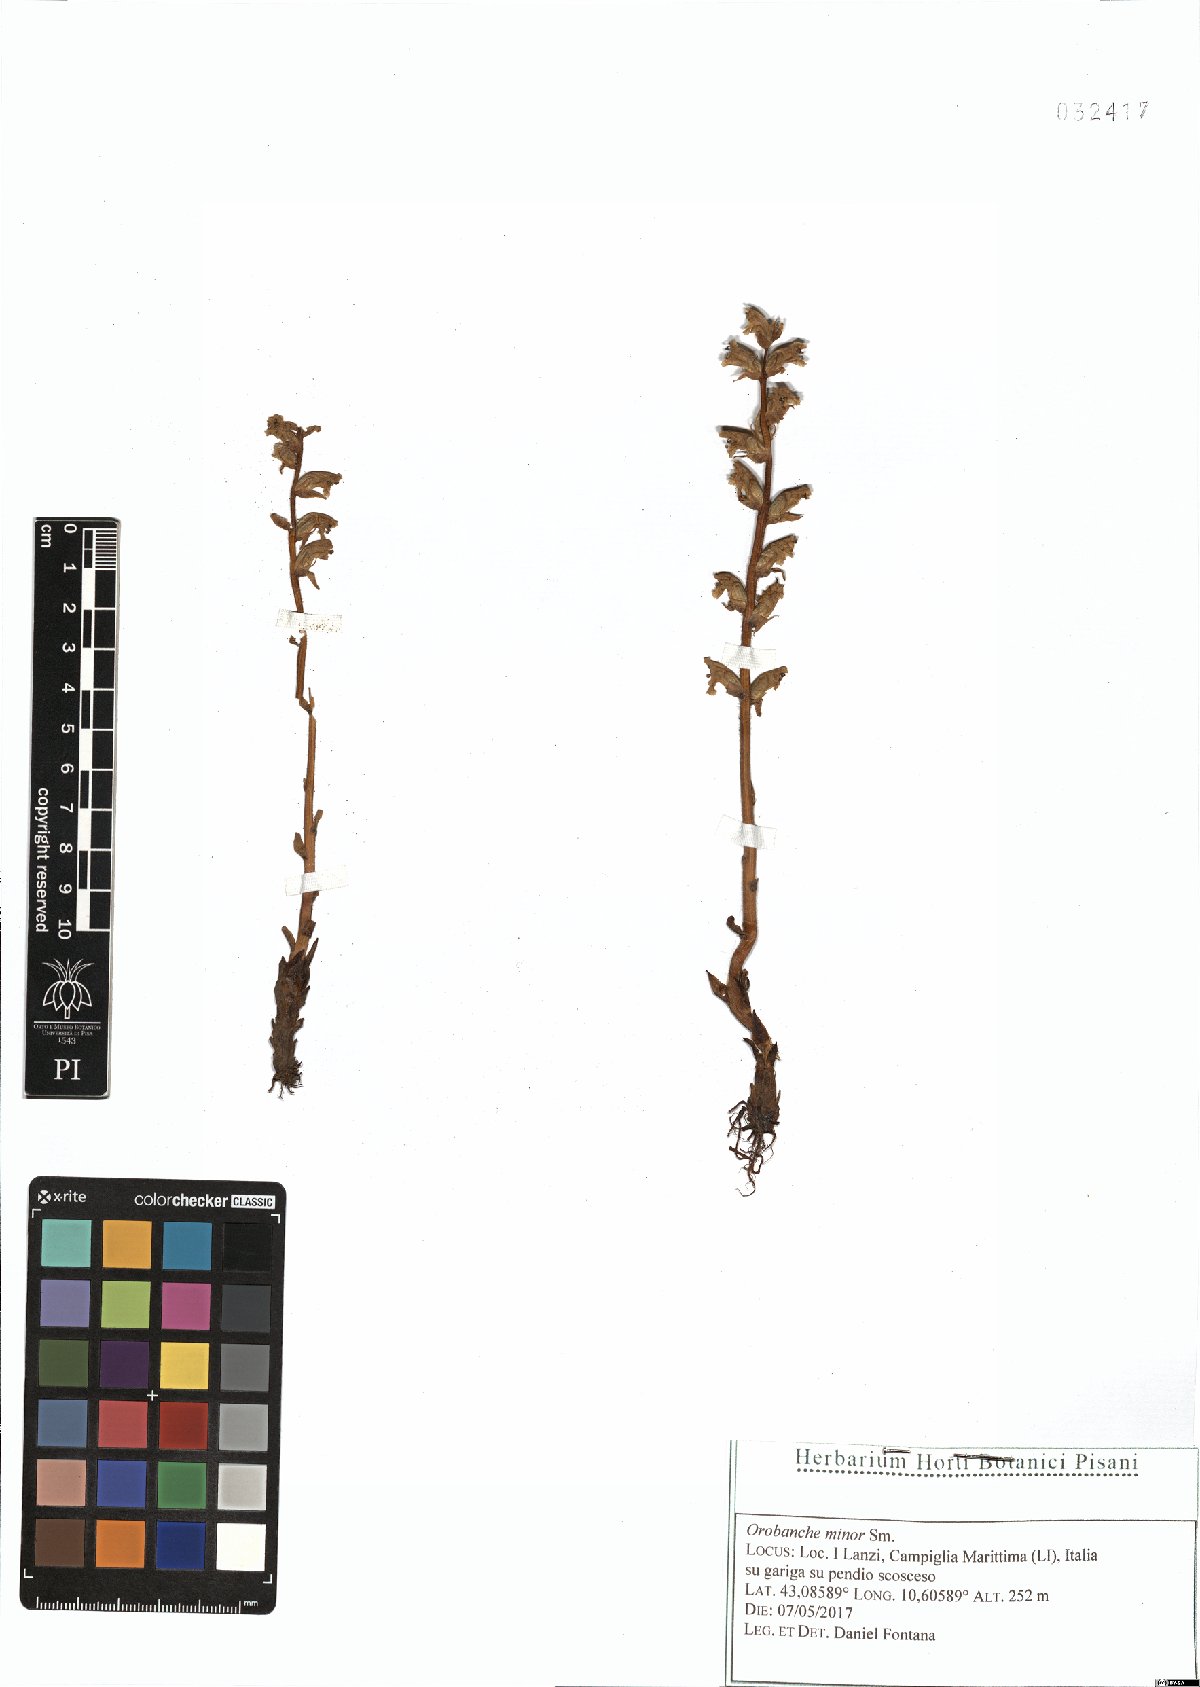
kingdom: Plantae
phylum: Tracheophyta
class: Magnoliopsida
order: Lamiales
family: Orobanchaceae
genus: Orobanche
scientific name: Orobanche minor
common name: Common broomrape
